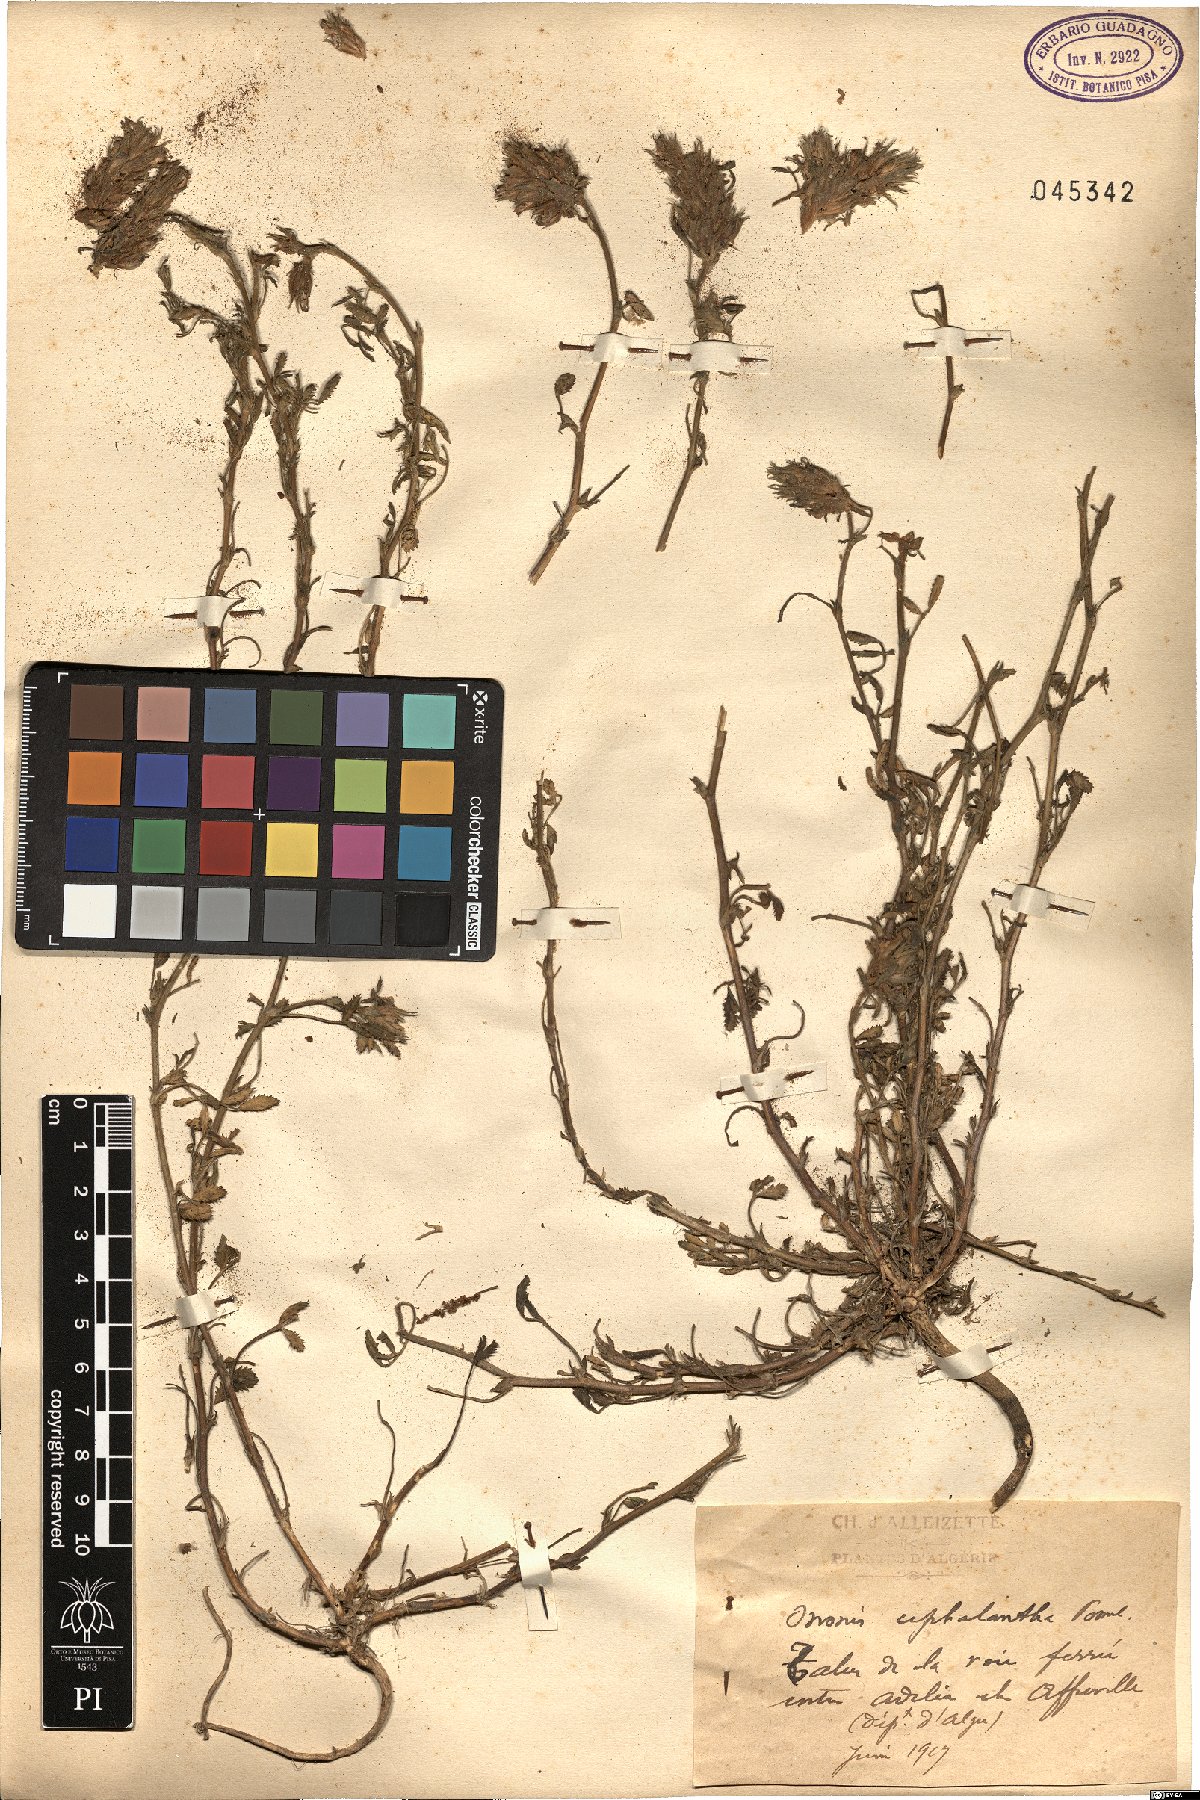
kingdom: Plantae
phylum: Tracheophyta
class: Magnoliopsida
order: Fabales
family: Fabaceae
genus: Ononis
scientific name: Ononis cephalantha
